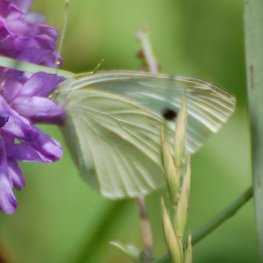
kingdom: Animalia
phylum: Arthropoda
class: Insecta
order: Lepidoptera
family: Pieridae
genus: Pieris
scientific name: Pieris rapae
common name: Cabbage White
